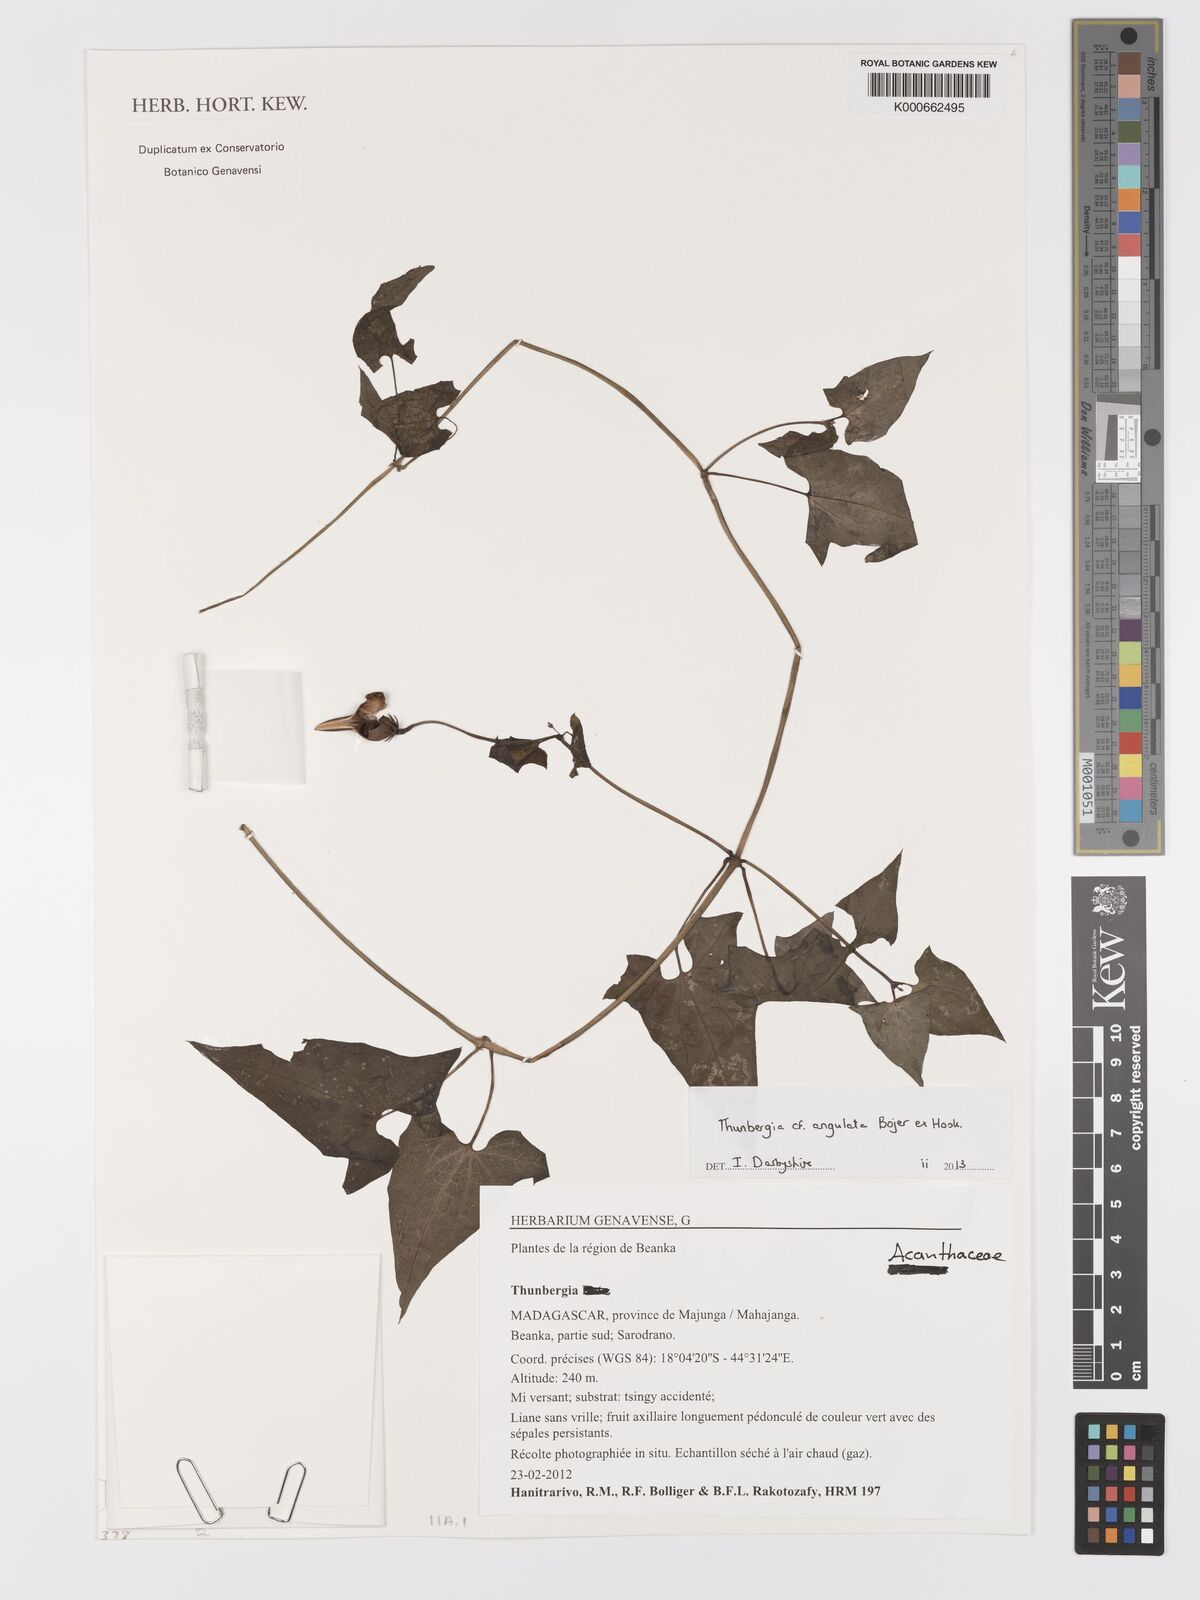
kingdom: Plantae
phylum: Tracheophyta
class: Magnoliopsida
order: Lamiales
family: Acanthaceae
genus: Thunbergia
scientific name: Thunbergia angulata
